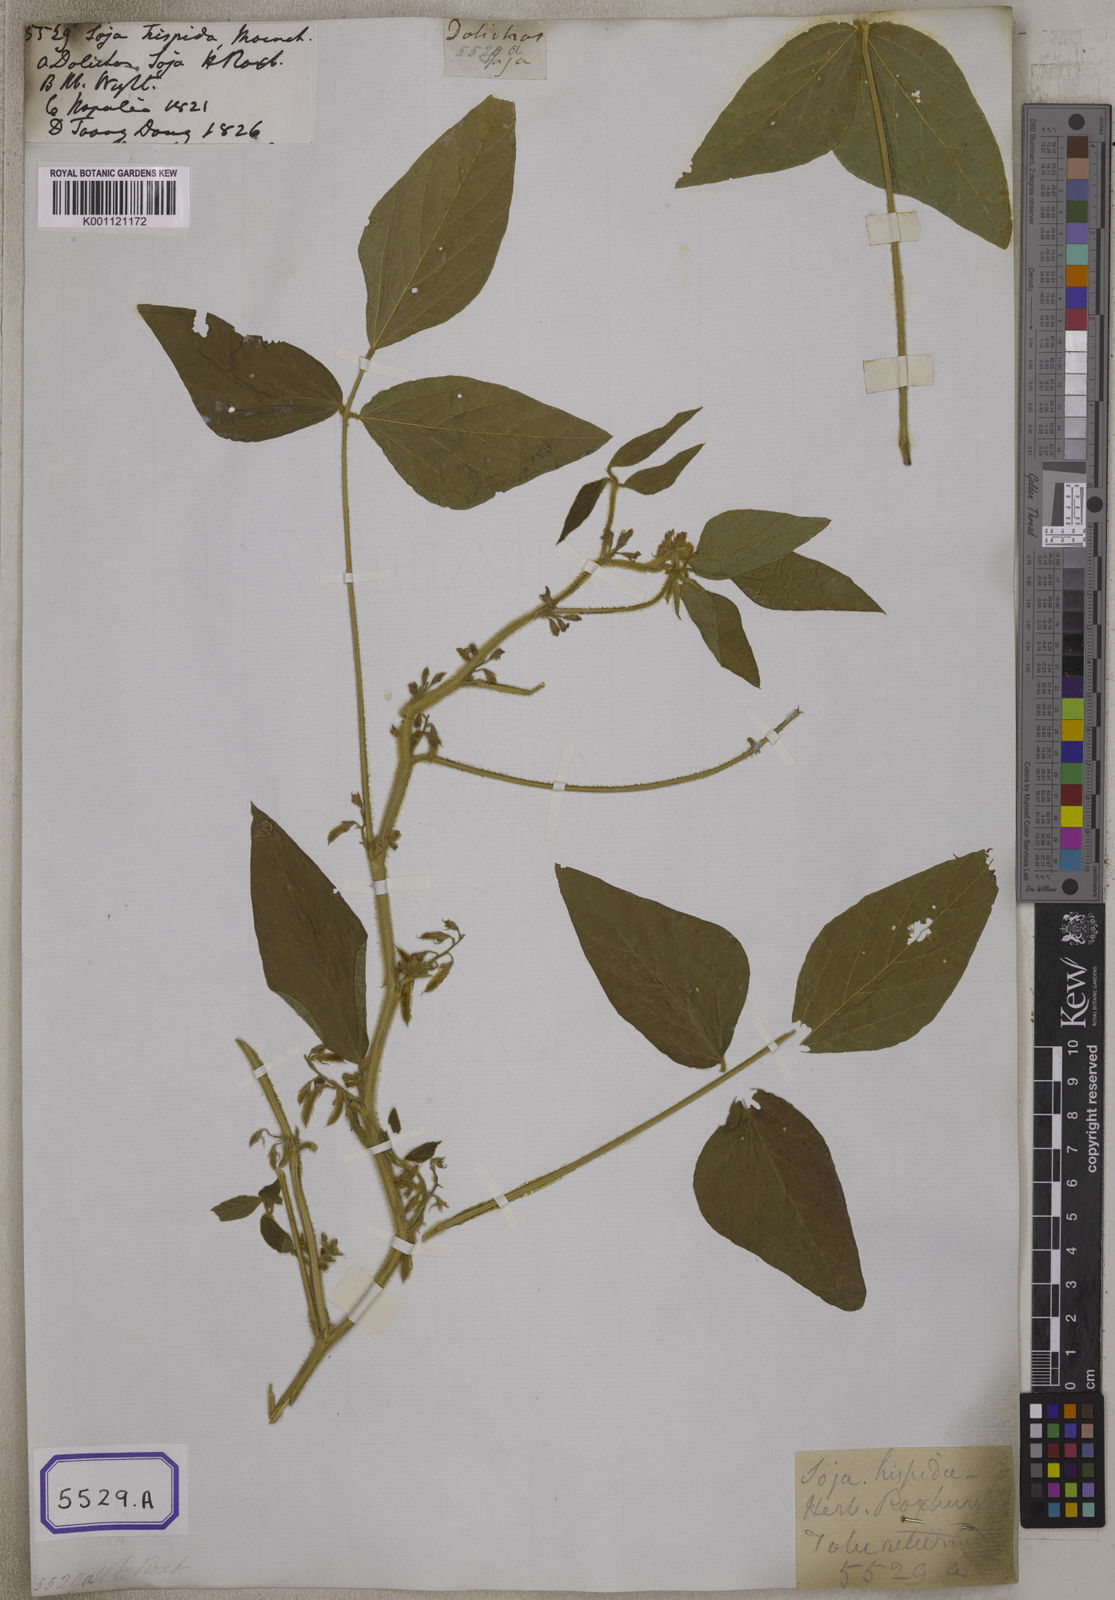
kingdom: Plantae
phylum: Tracheophyta
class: Magnoliopsida
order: Fabales
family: Fabaceae
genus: Glycine
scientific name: Glycine max
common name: Soya-bean
